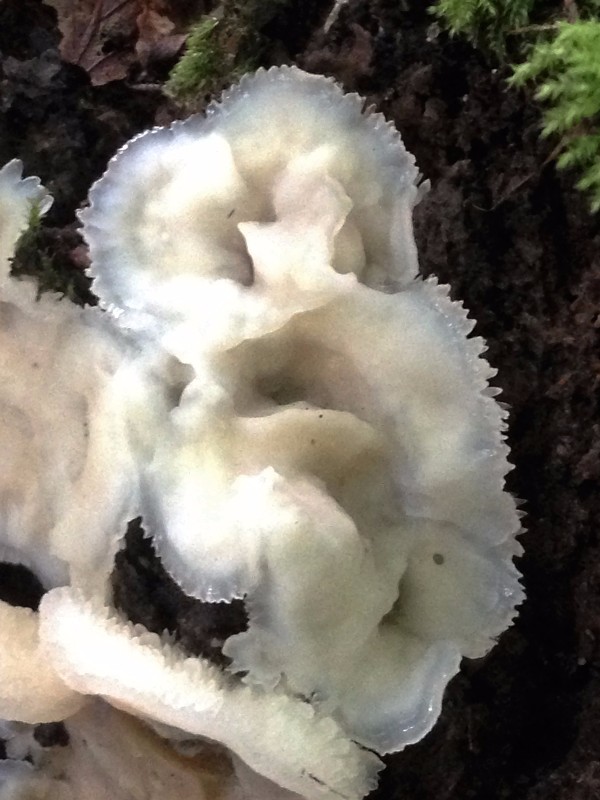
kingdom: Fungi
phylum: Basidiomycota
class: Agaricomycetes
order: Polyporales
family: Meruliaceae
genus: Phlebia
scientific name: Phlebia tremellosa
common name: bævrende åresvamp
